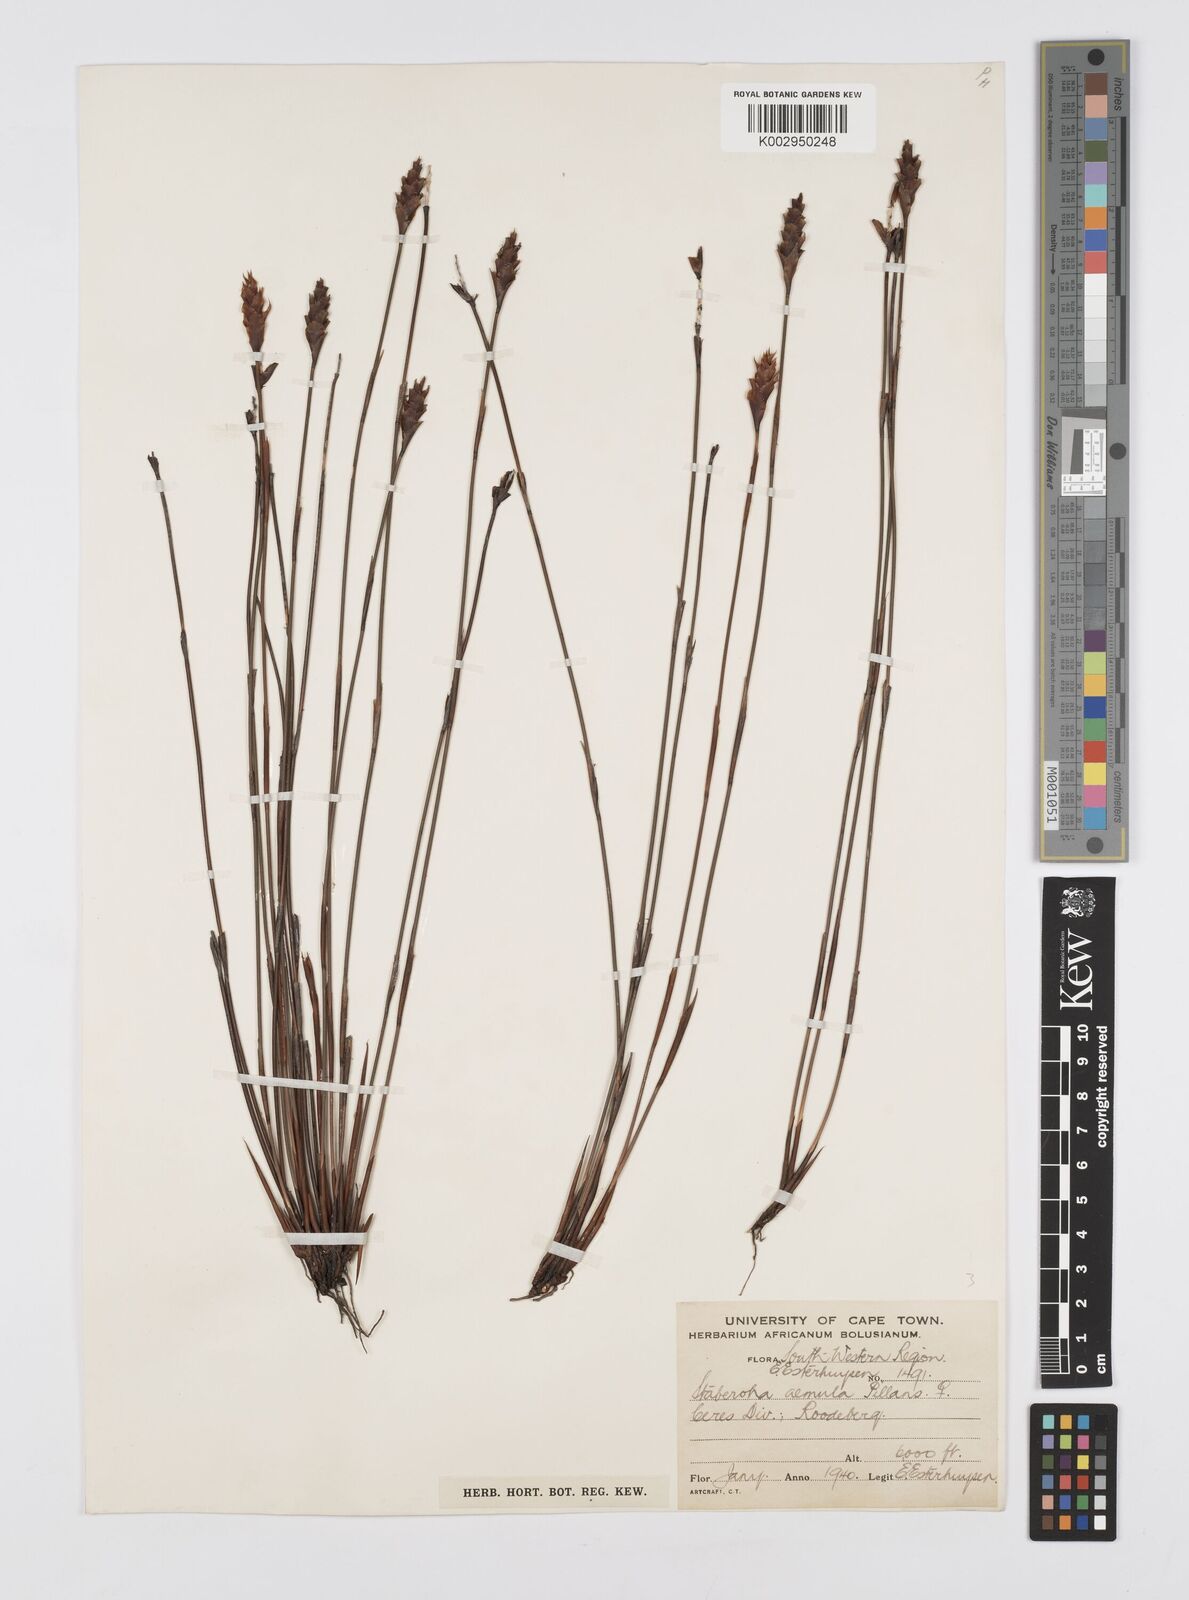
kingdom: Plantae
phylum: Tracheophyta
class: Liliopsida
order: Poales
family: Restionaceae
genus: Staberoha
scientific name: Staberoha aemula
